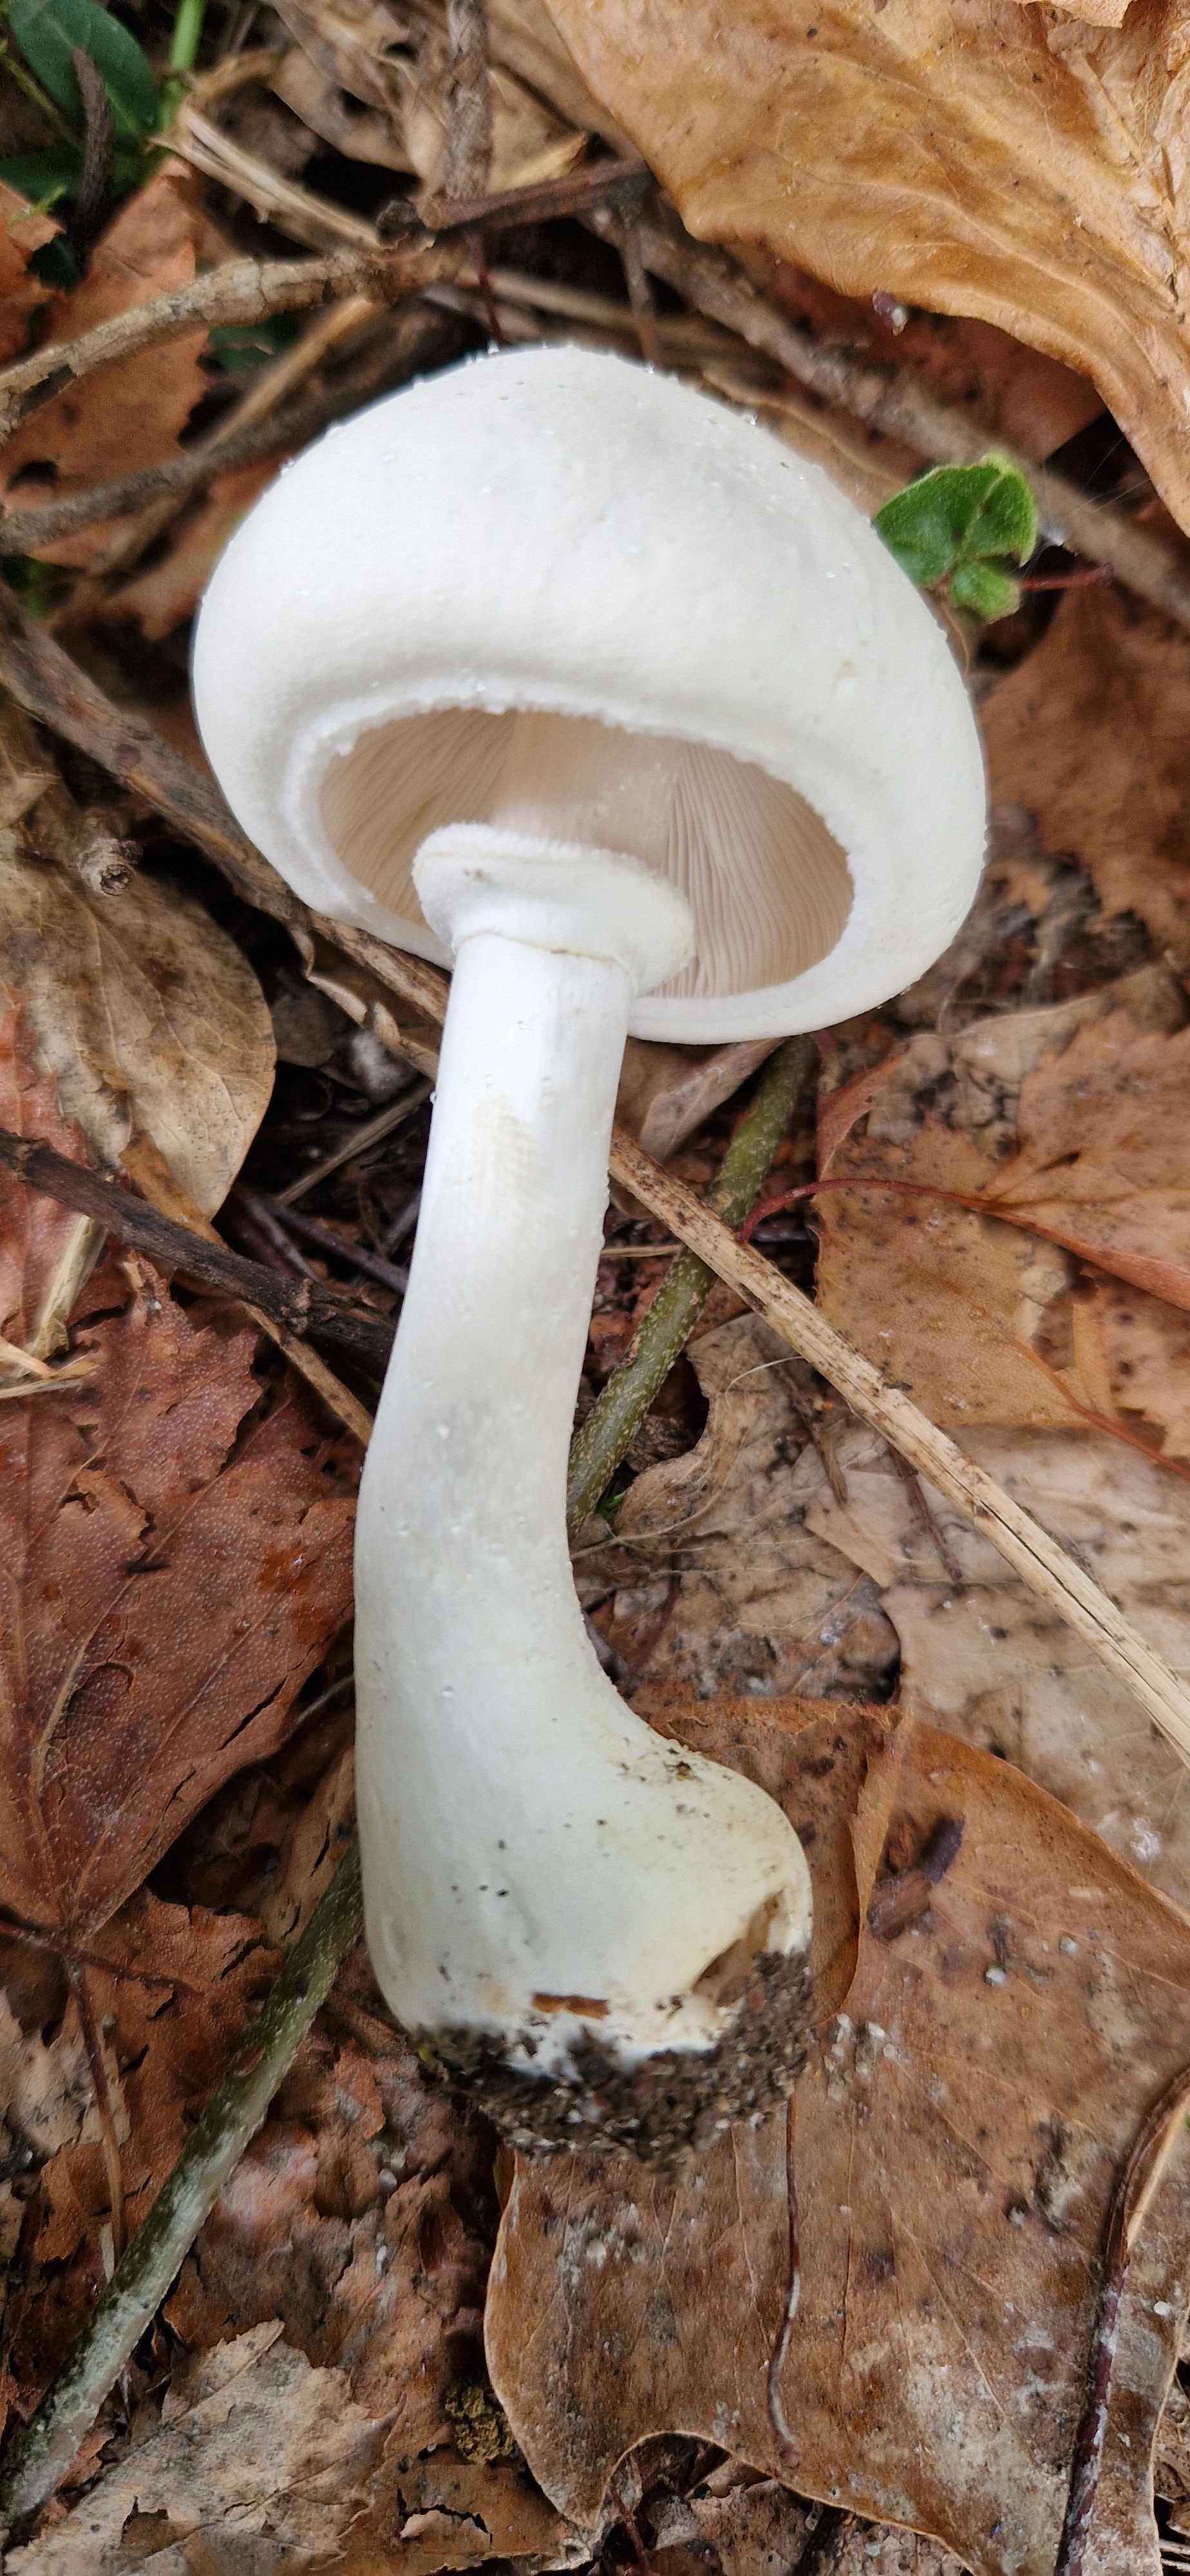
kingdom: Fungi
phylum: Basidiomycota
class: Agaricomycetes
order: Agaricales
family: Agaricaceae
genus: Leucoagaricus
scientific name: Leucoagaricus leucothites
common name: rosabladet silkehat
